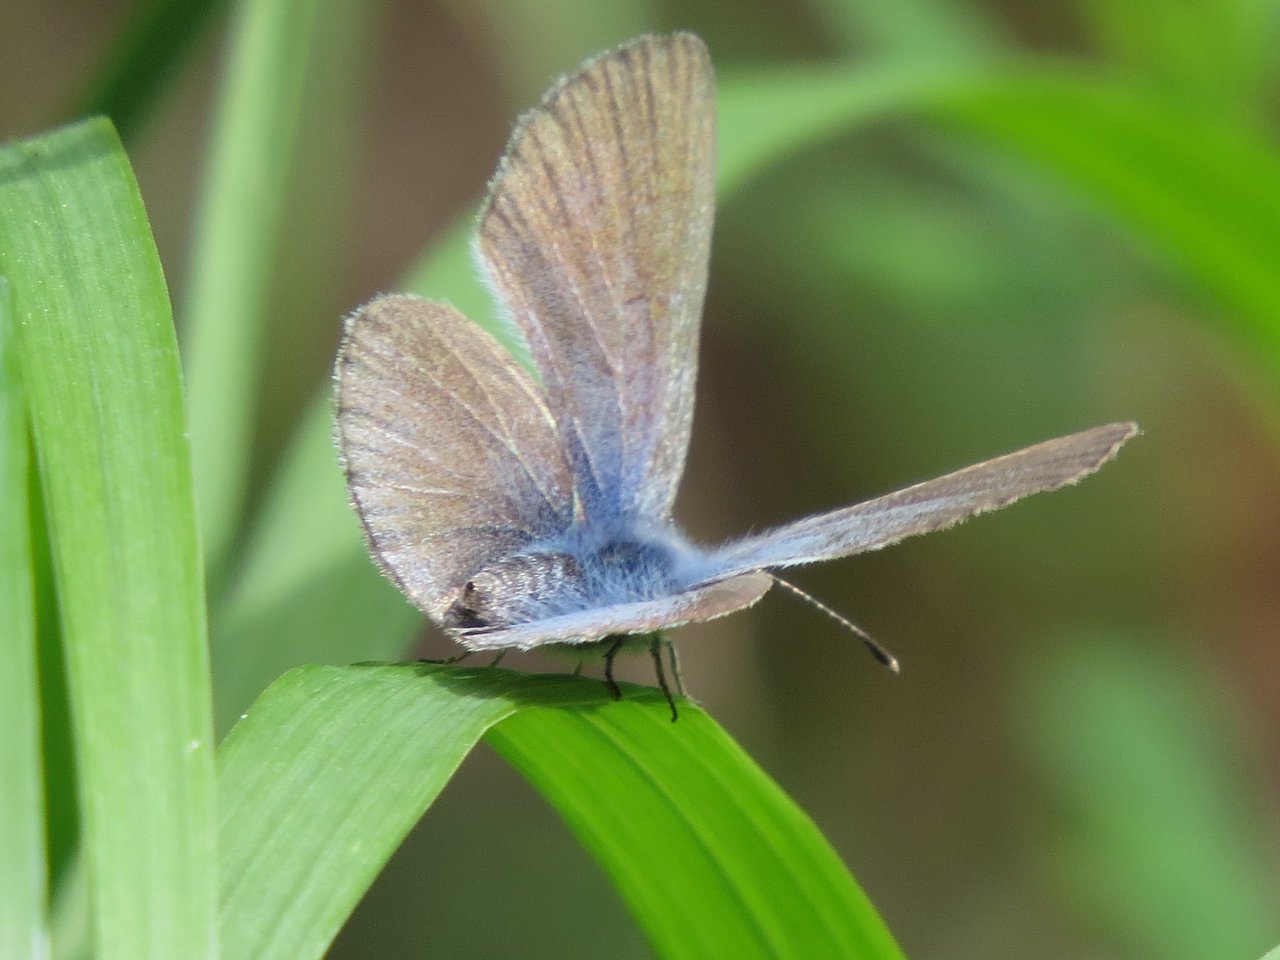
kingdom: Animalia
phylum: Arthropoda
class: Insecta
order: Lepidoptera
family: Lycaenidae
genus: Plebejus
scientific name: Plebejus saepiolus
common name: Greenish Blue
